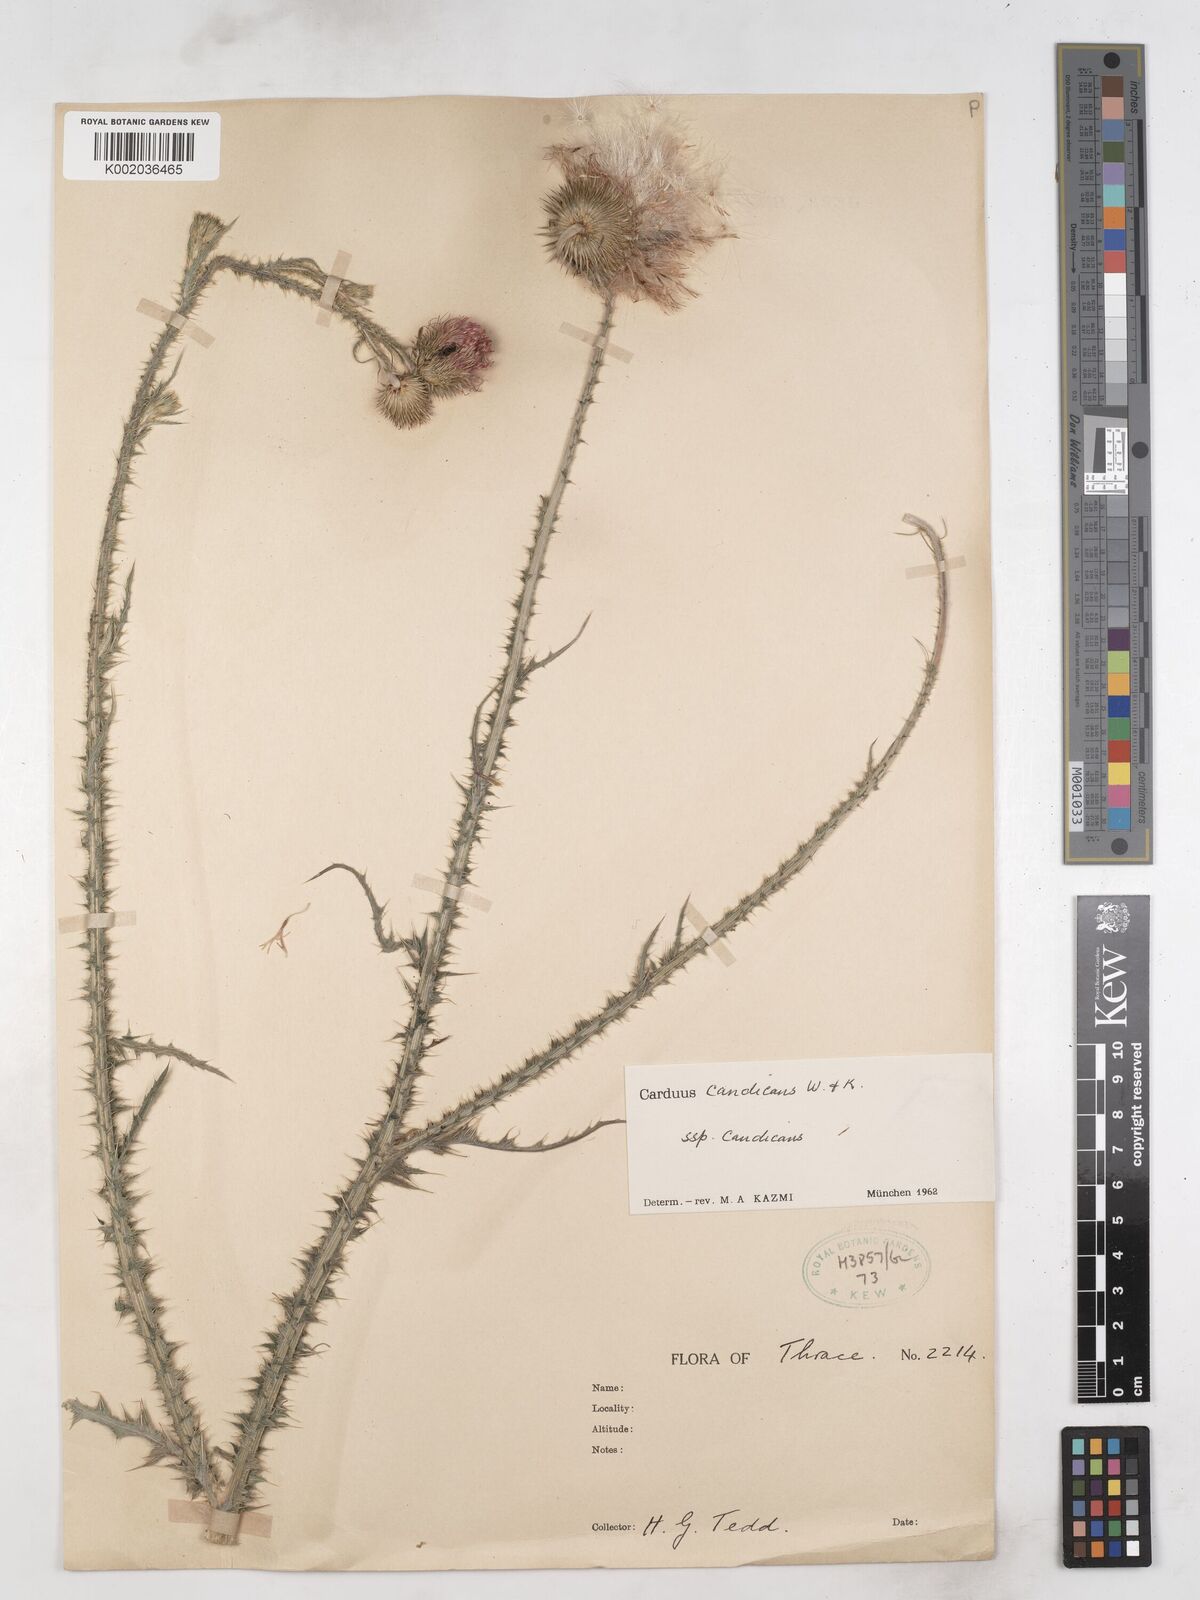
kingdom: Plantae
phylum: Tracheophyta
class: Magnoliopsida
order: Asterales
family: Asteraceae
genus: Carduus
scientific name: Carduus candicans
